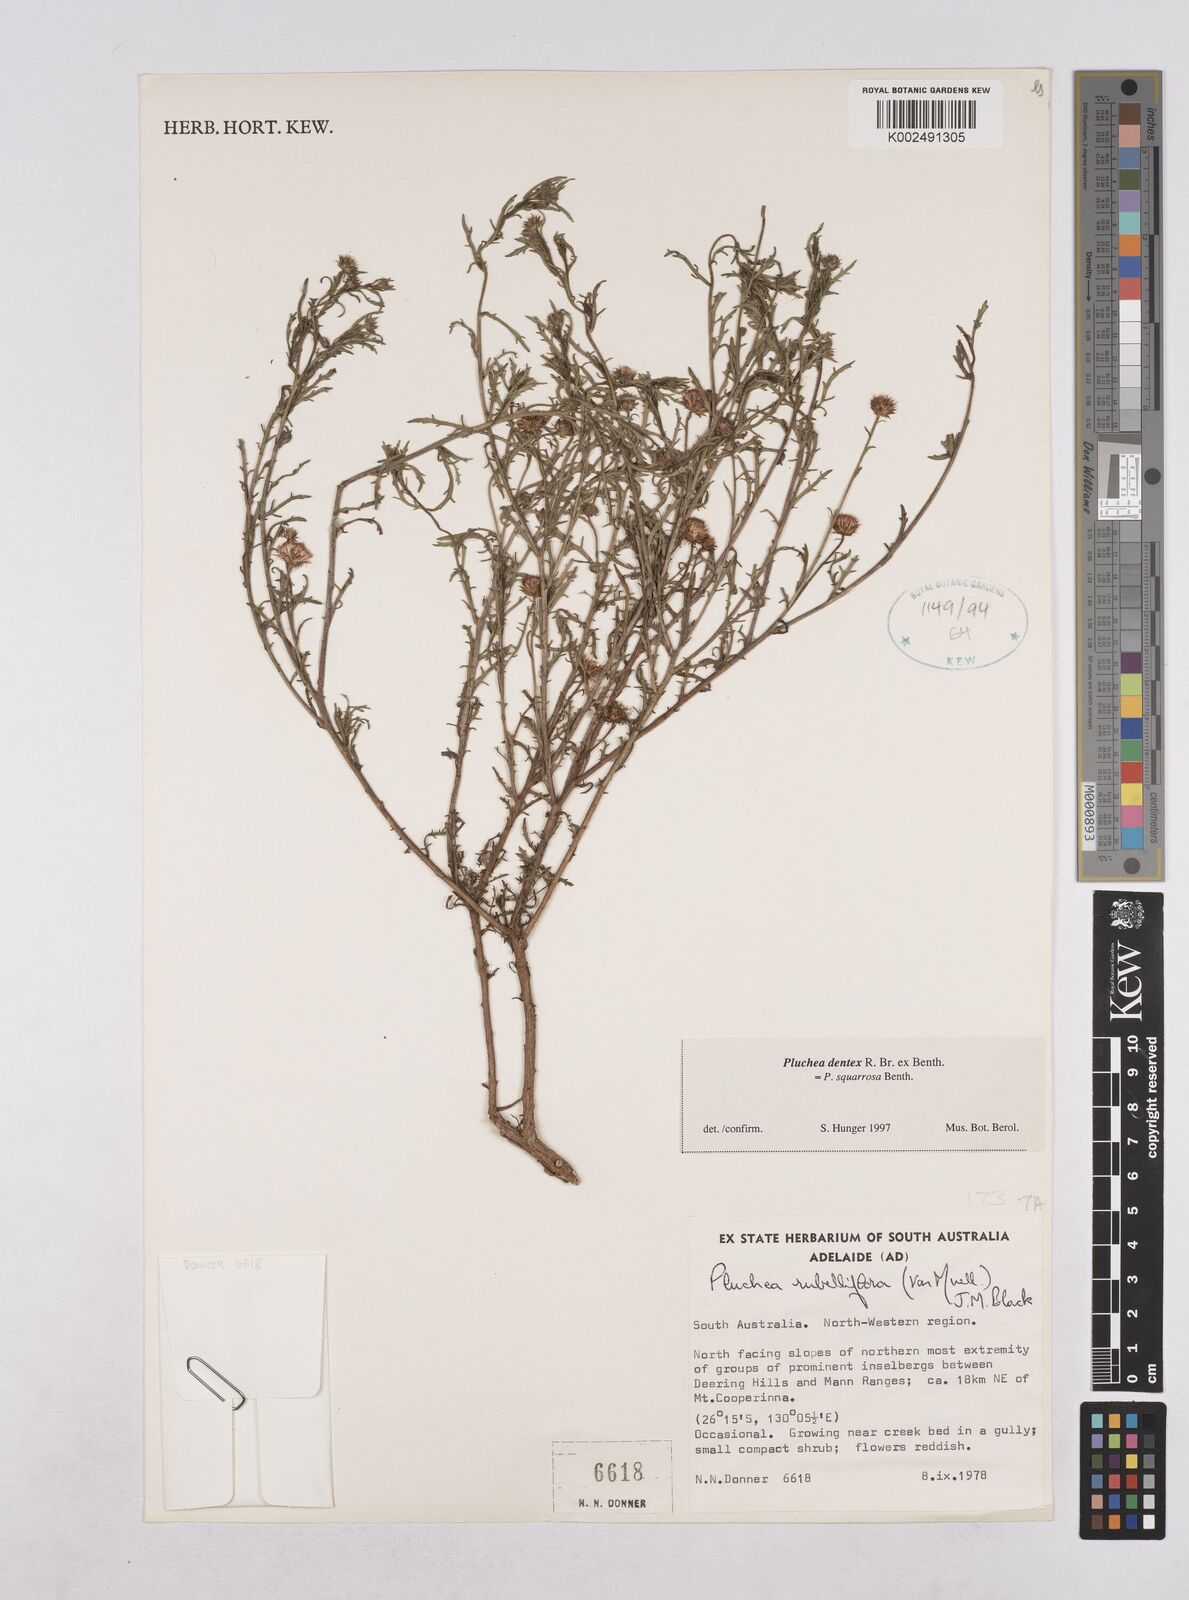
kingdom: Plantae
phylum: Tracheophyta
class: Magnoliopsida
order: Asterales
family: Asteraceae
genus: Pluchea
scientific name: Pluchea dentex
